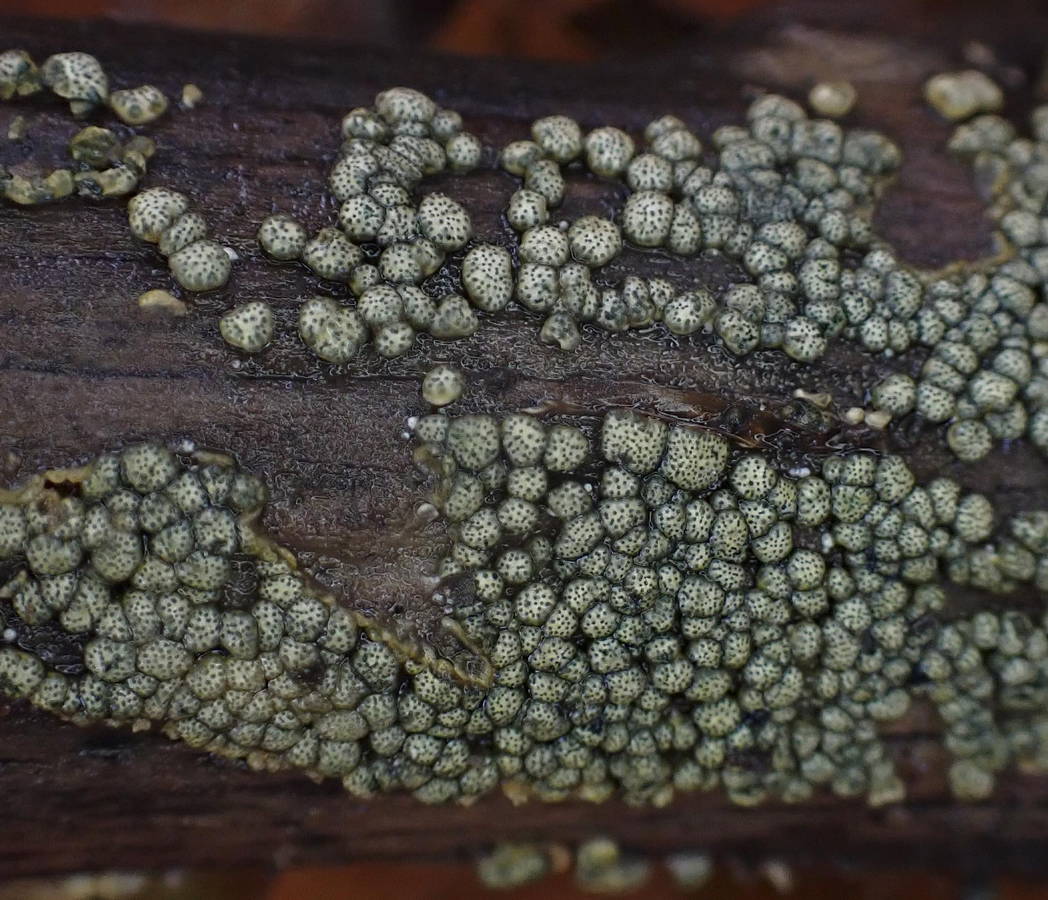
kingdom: Fungi
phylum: Ascomycota
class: Sordariomycetes
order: Hypocreales
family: Hypocreaceae
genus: Trichoderma
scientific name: Trichoderma strictipile
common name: grønprikket kødkerne
